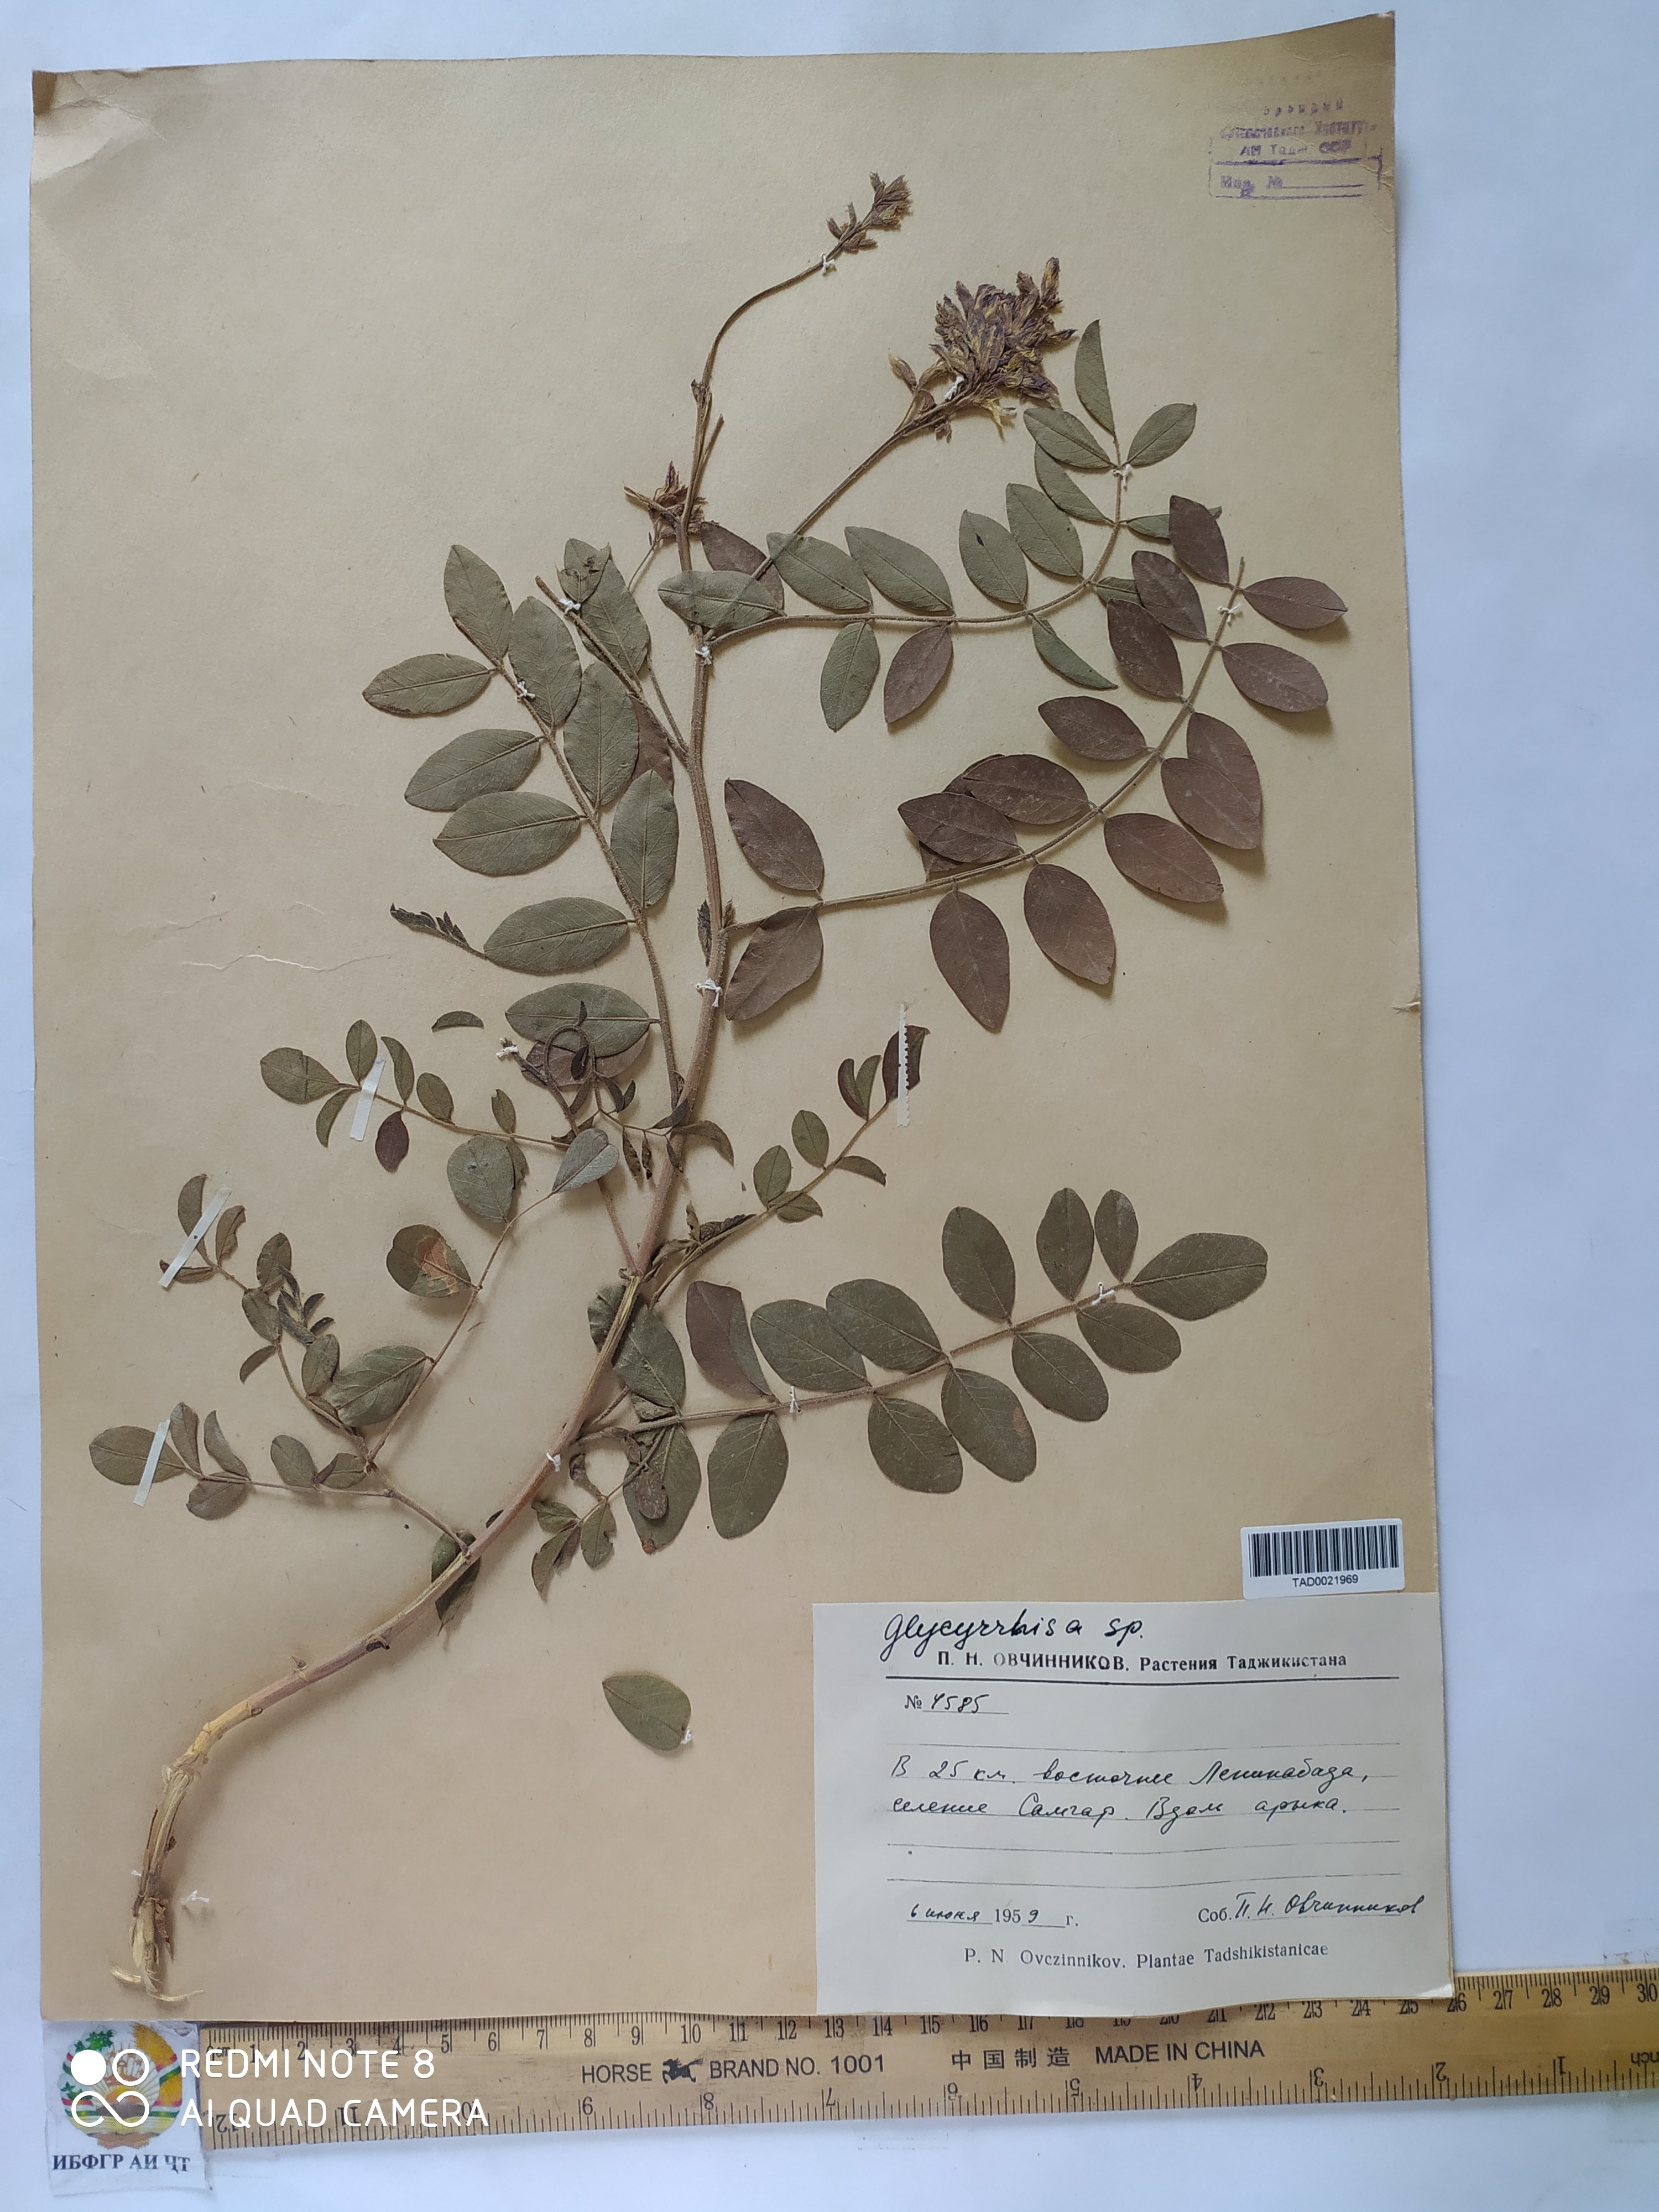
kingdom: Plantae
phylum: Tracheophyta
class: Magnoliopsida
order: Fabales
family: Fabaceae
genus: Glycyrrhiza
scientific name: Glycyrrhiza glabra
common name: Liquorice
